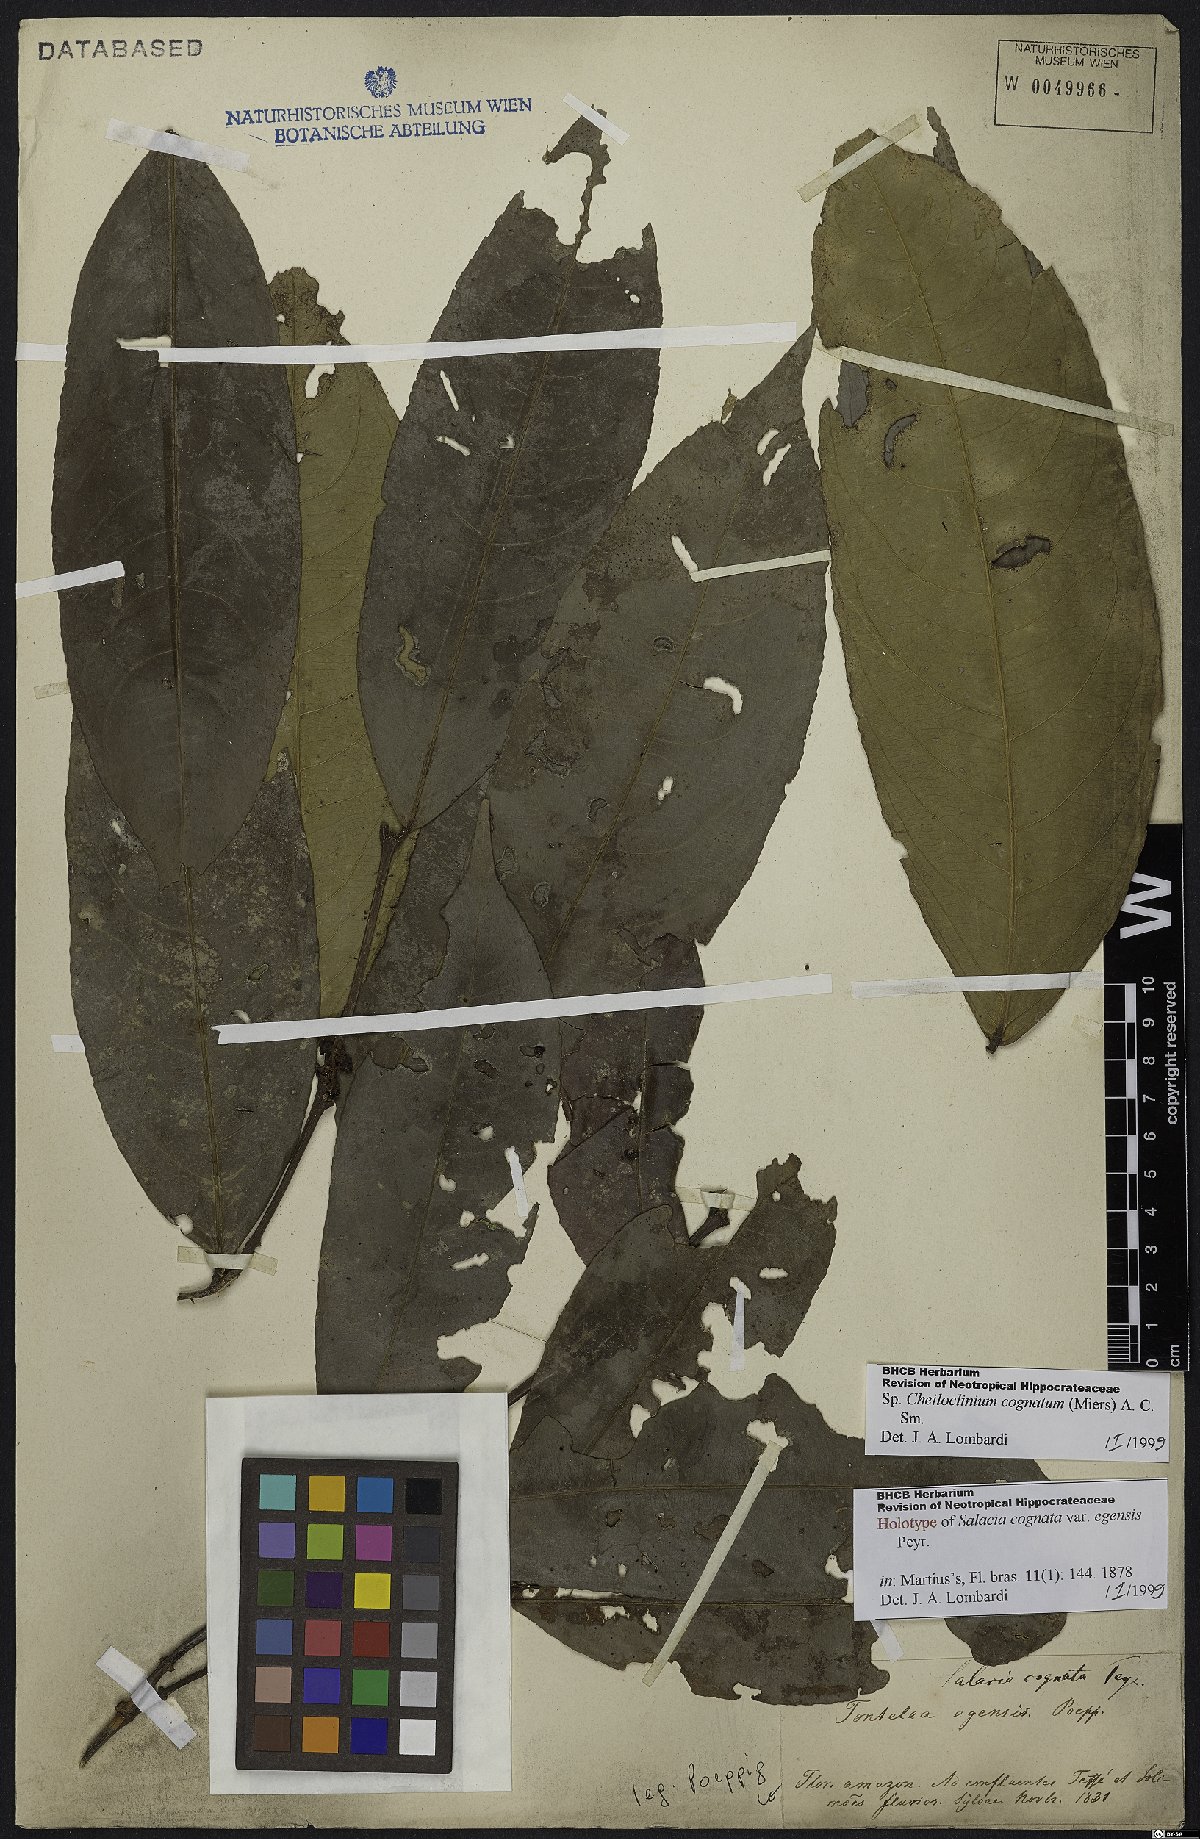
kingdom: Plantae
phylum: Tracheophyta
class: Magnoliopsida
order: Celastrales
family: Celastraceae
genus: Cheiloclinium
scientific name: Cheiloclinium cognatum
